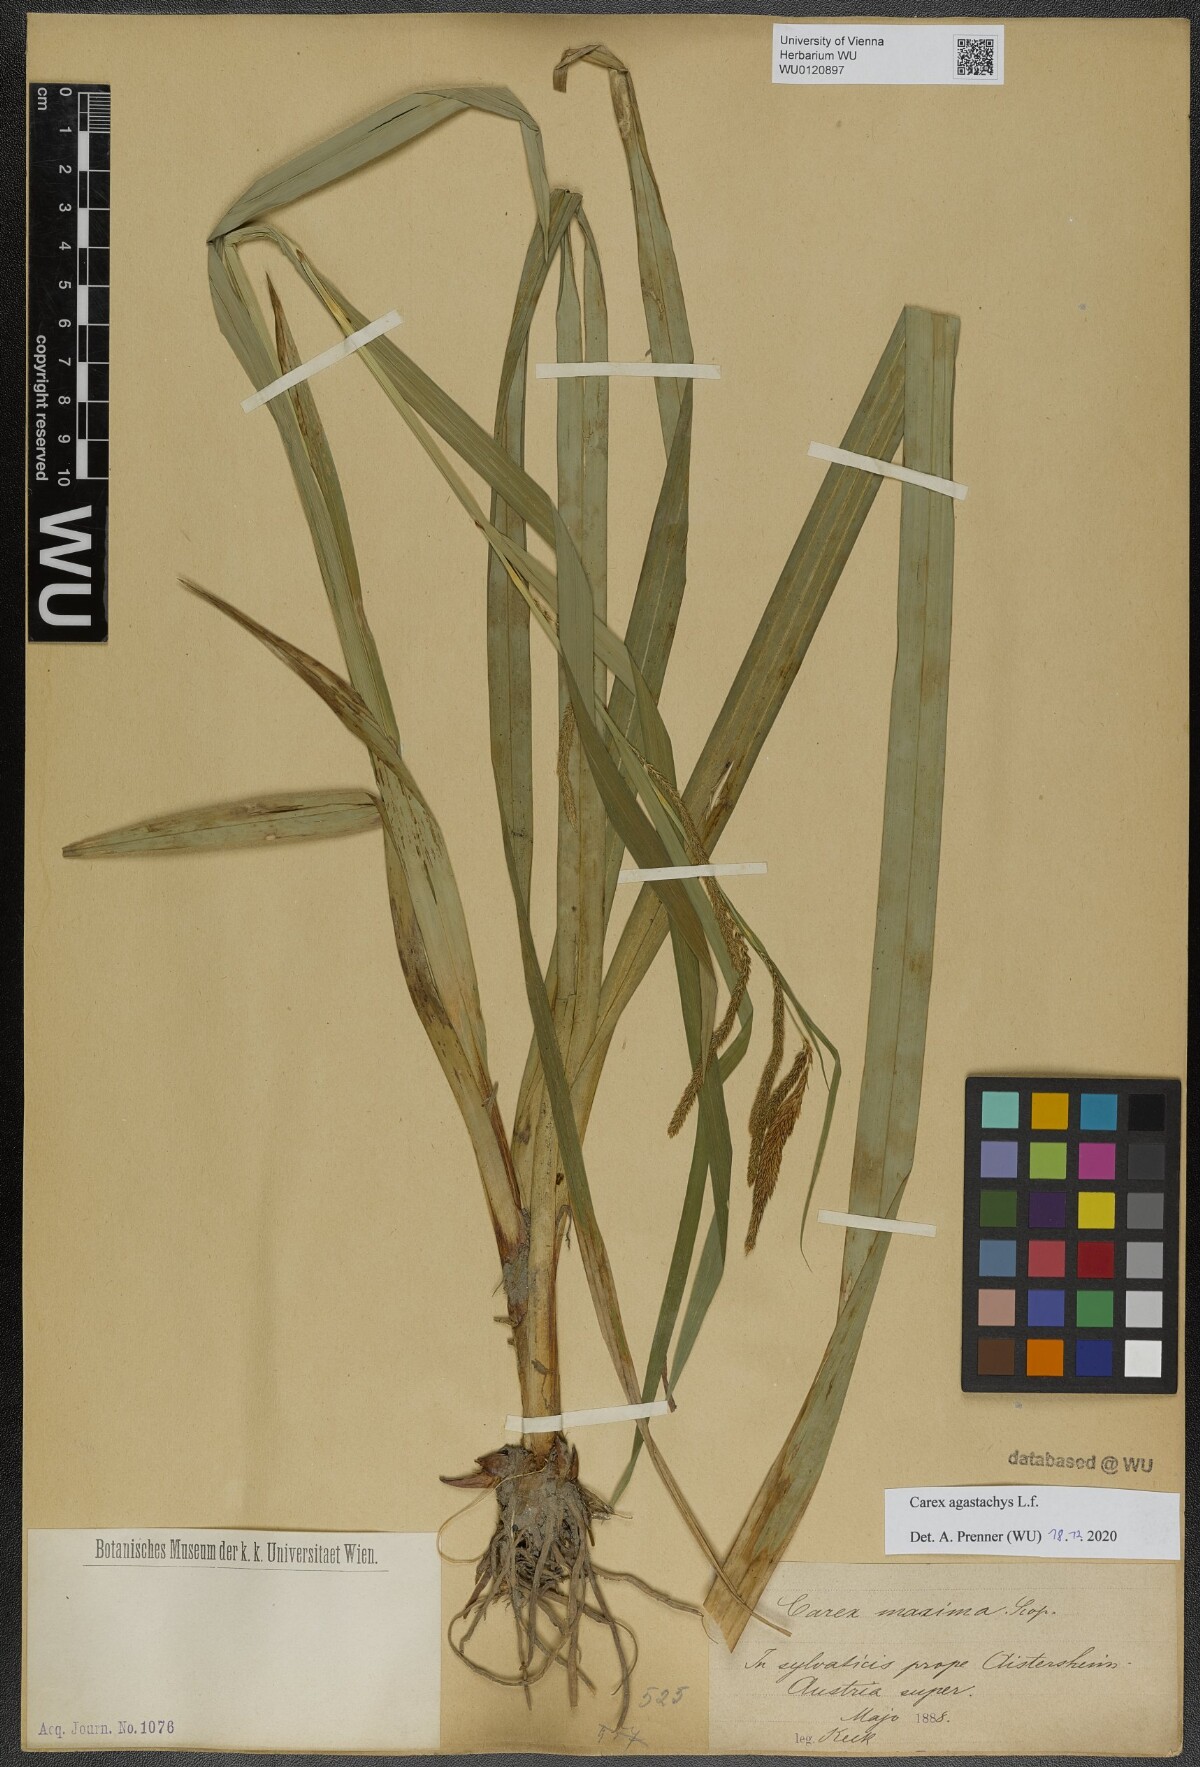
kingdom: Plantae
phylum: Tracheophyta
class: Liliopsida
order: Poales
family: Cyperaceae
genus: Carex
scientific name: Carex agastachys
